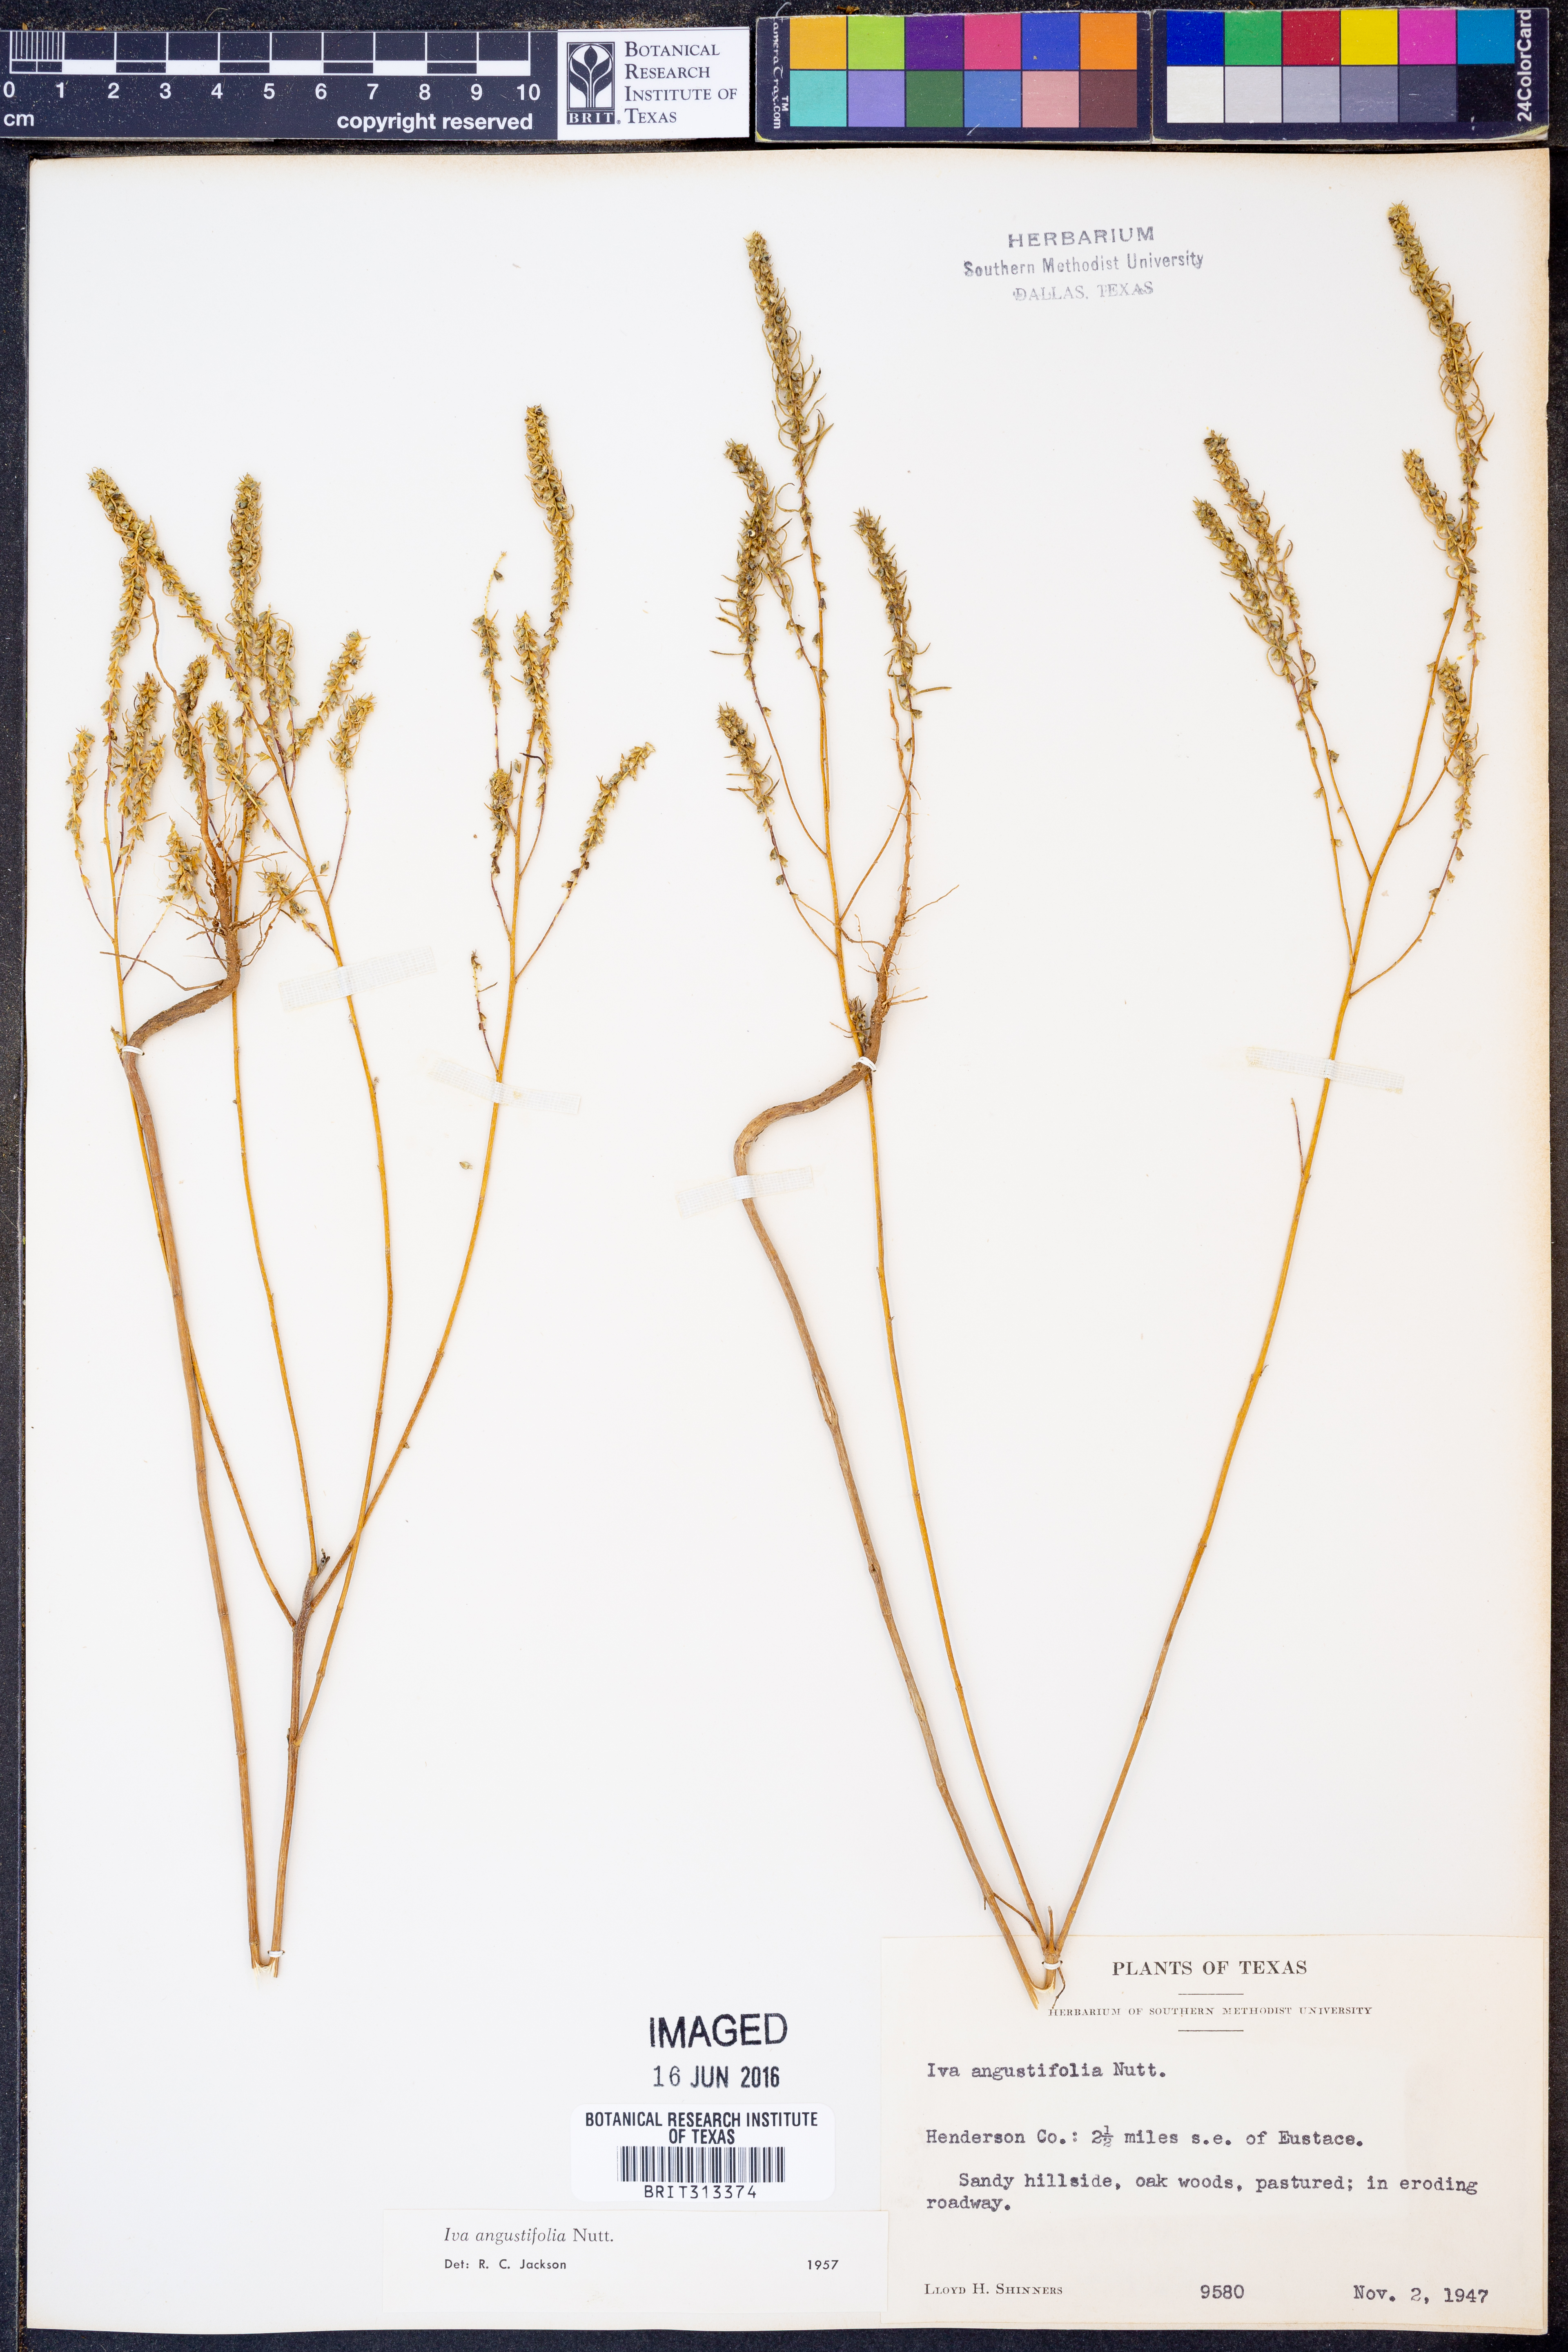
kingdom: Plantae
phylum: Tracheophyta
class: Magnoliopsida
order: Asterales
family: Asteraceae
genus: Iva
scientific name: Iva asperifolia
